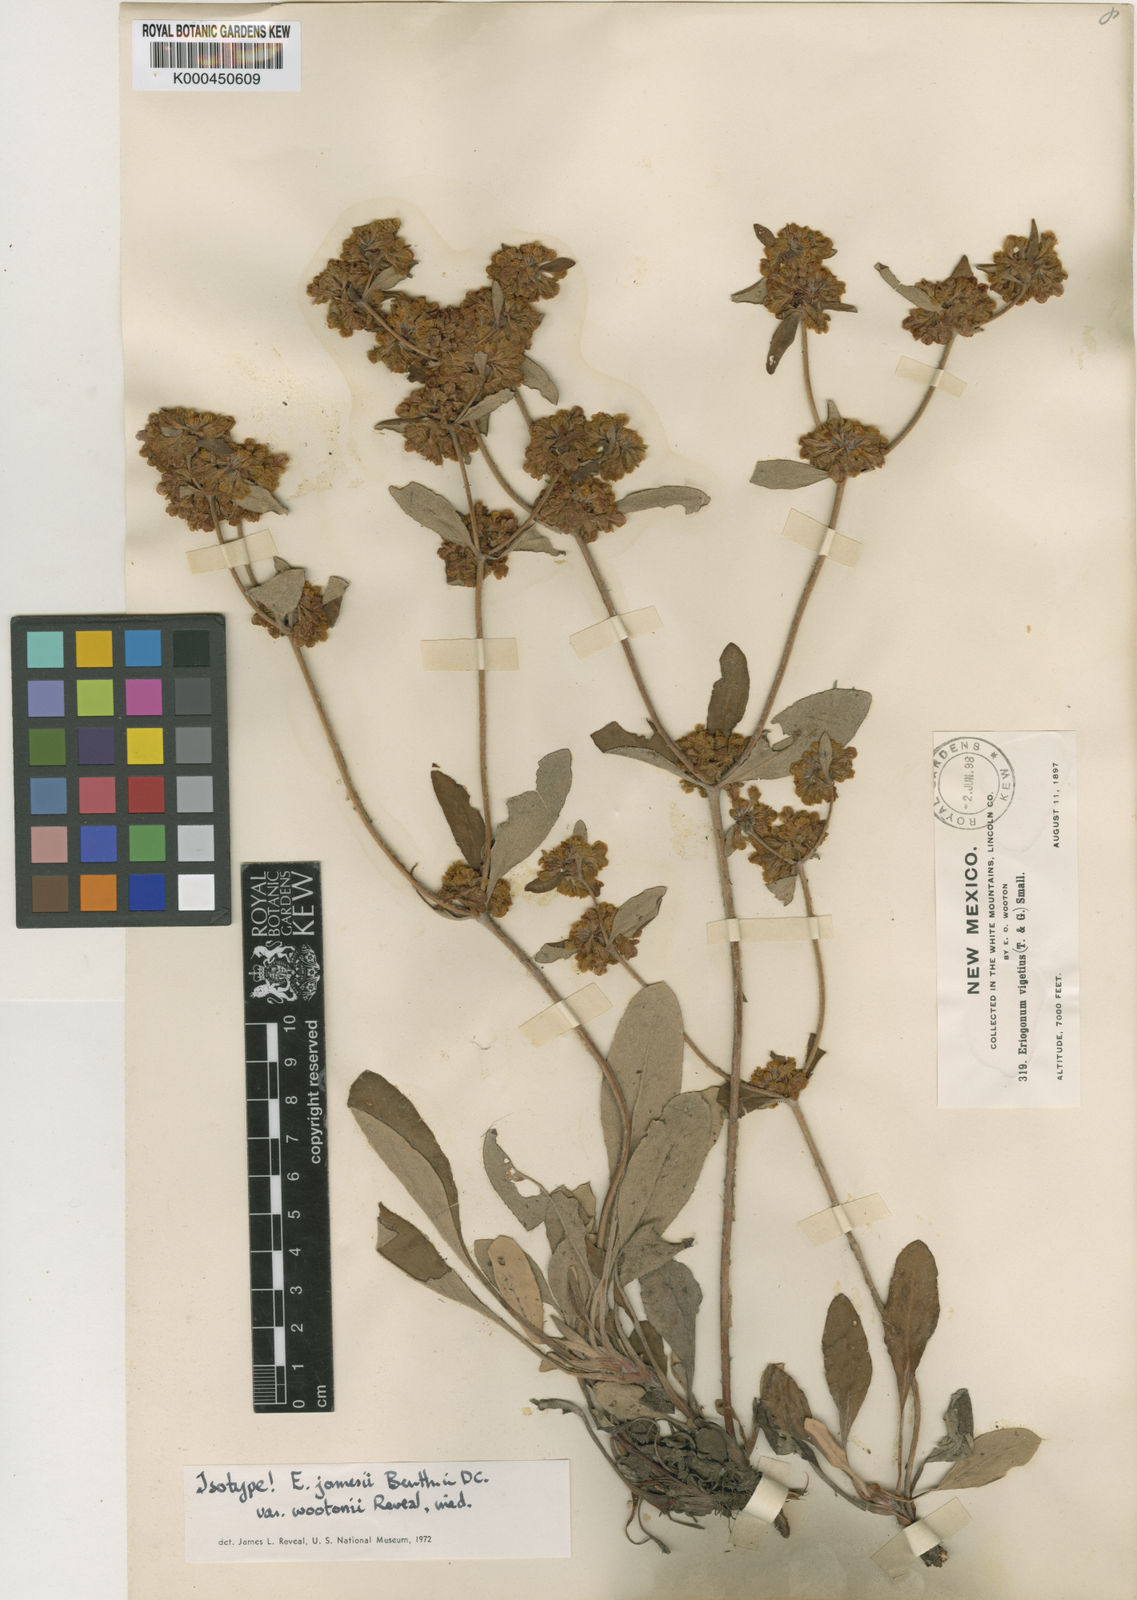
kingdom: Plantae
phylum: Tracheophyta
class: Magnoliopsida
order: Caryophyllales
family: Polygonaceae
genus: Eriogonum
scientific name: Eriogonum wootonii
